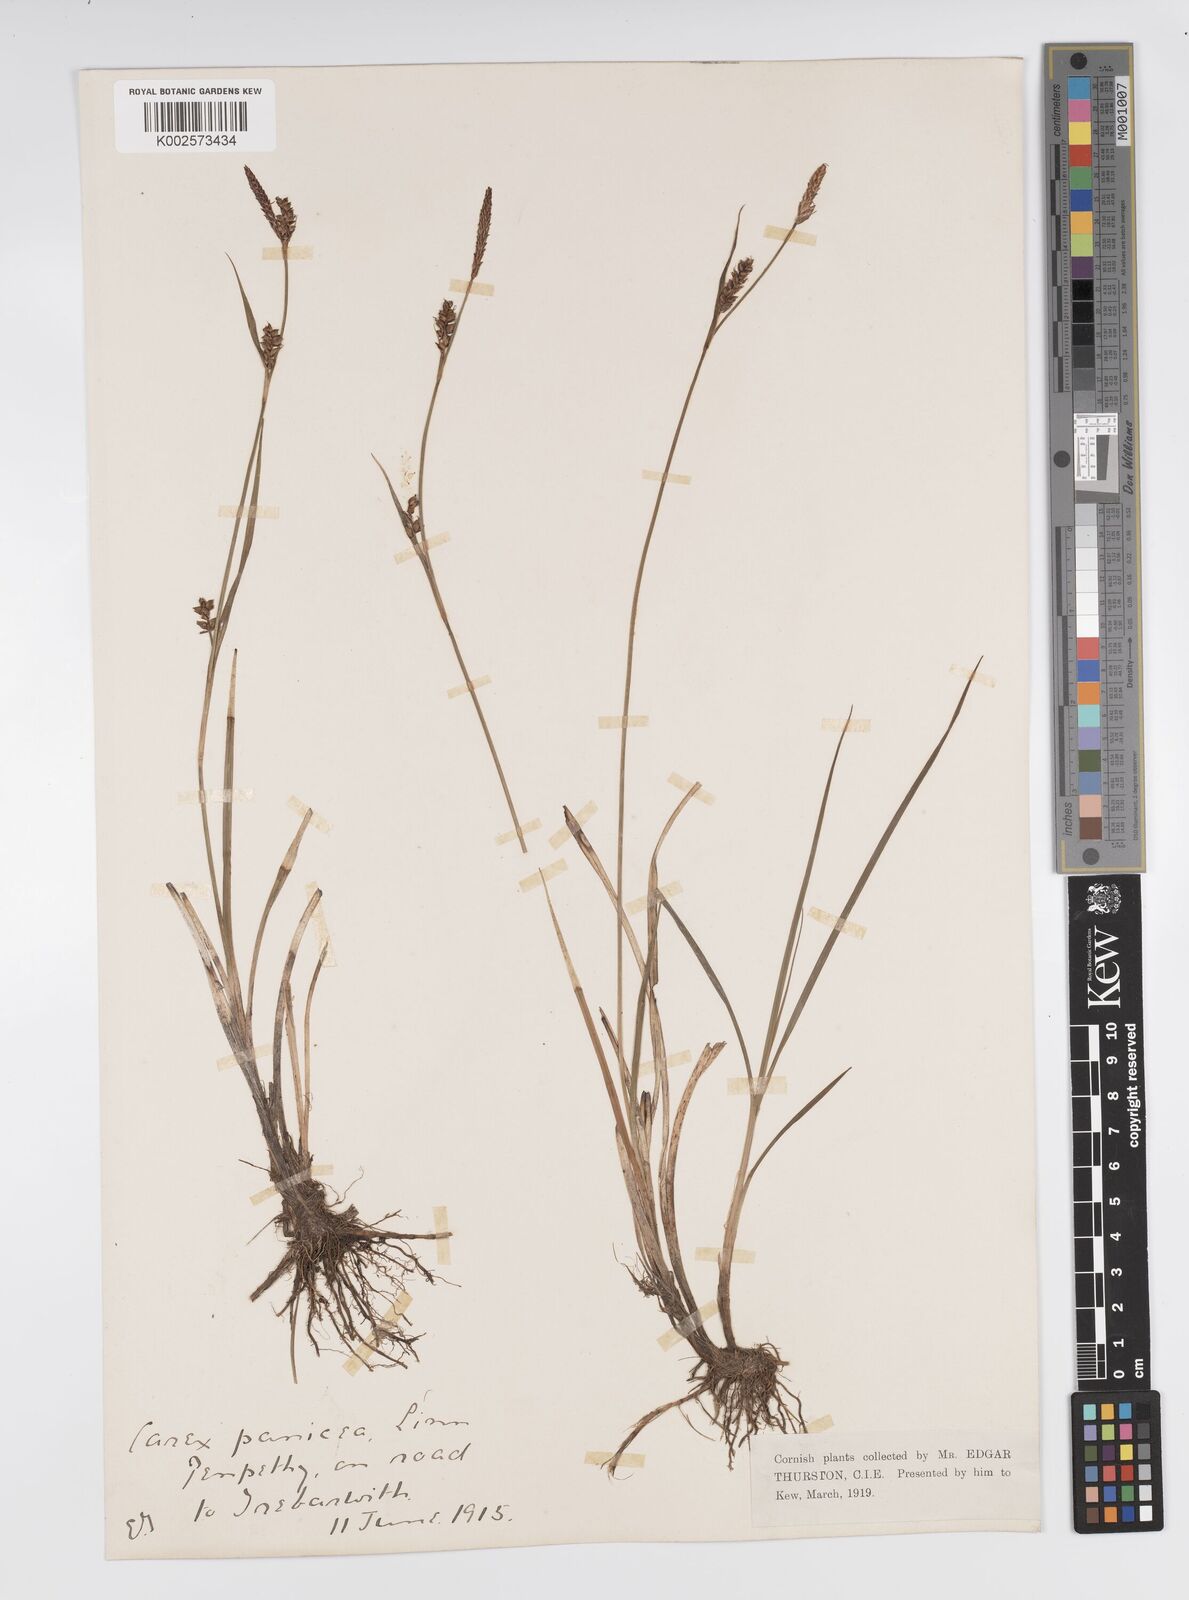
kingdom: Plantae
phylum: Tracheophyta
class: Liliopsida
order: Poales
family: Cyperaceae
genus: Carex
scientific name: Carex panicea
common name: Carnation sedge
